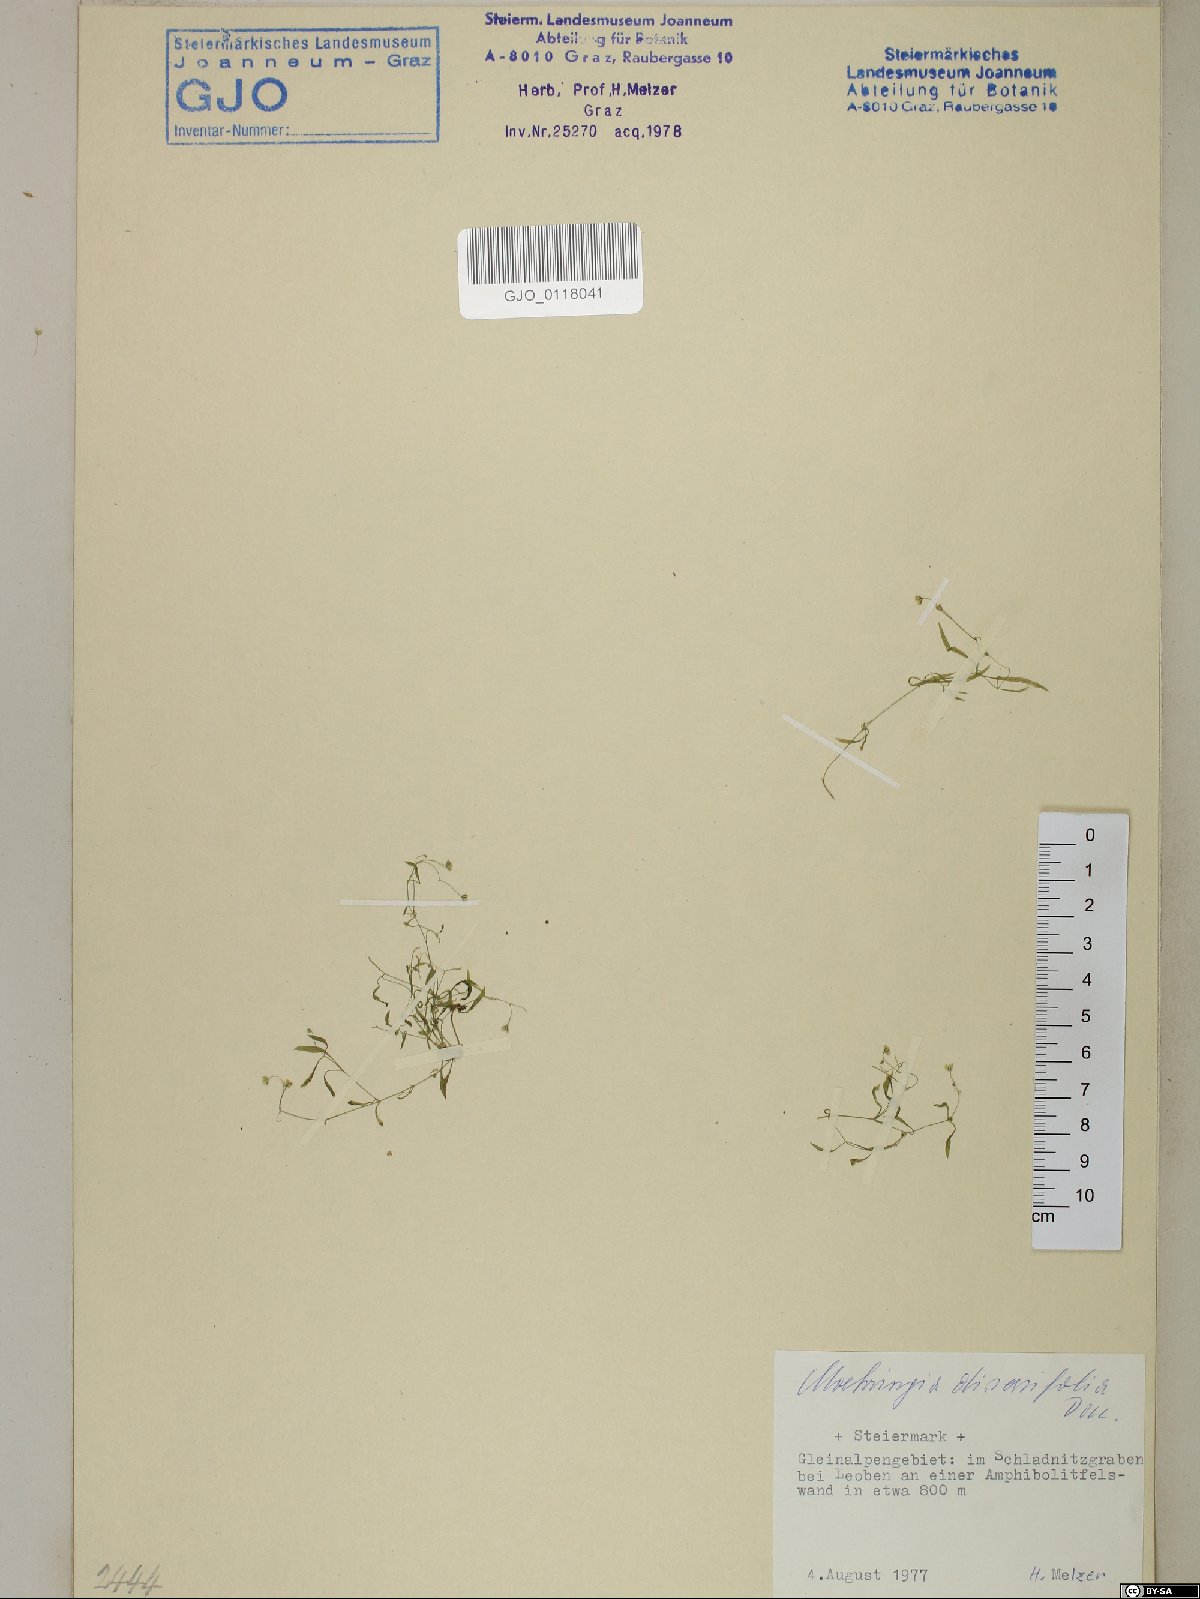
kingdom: Plantae
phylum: Tracheophyta
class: Magnoliopsida
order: Caryophyllales
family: Caryophyllaceae
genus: Moehringia
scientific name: Moehringia diversifolia
